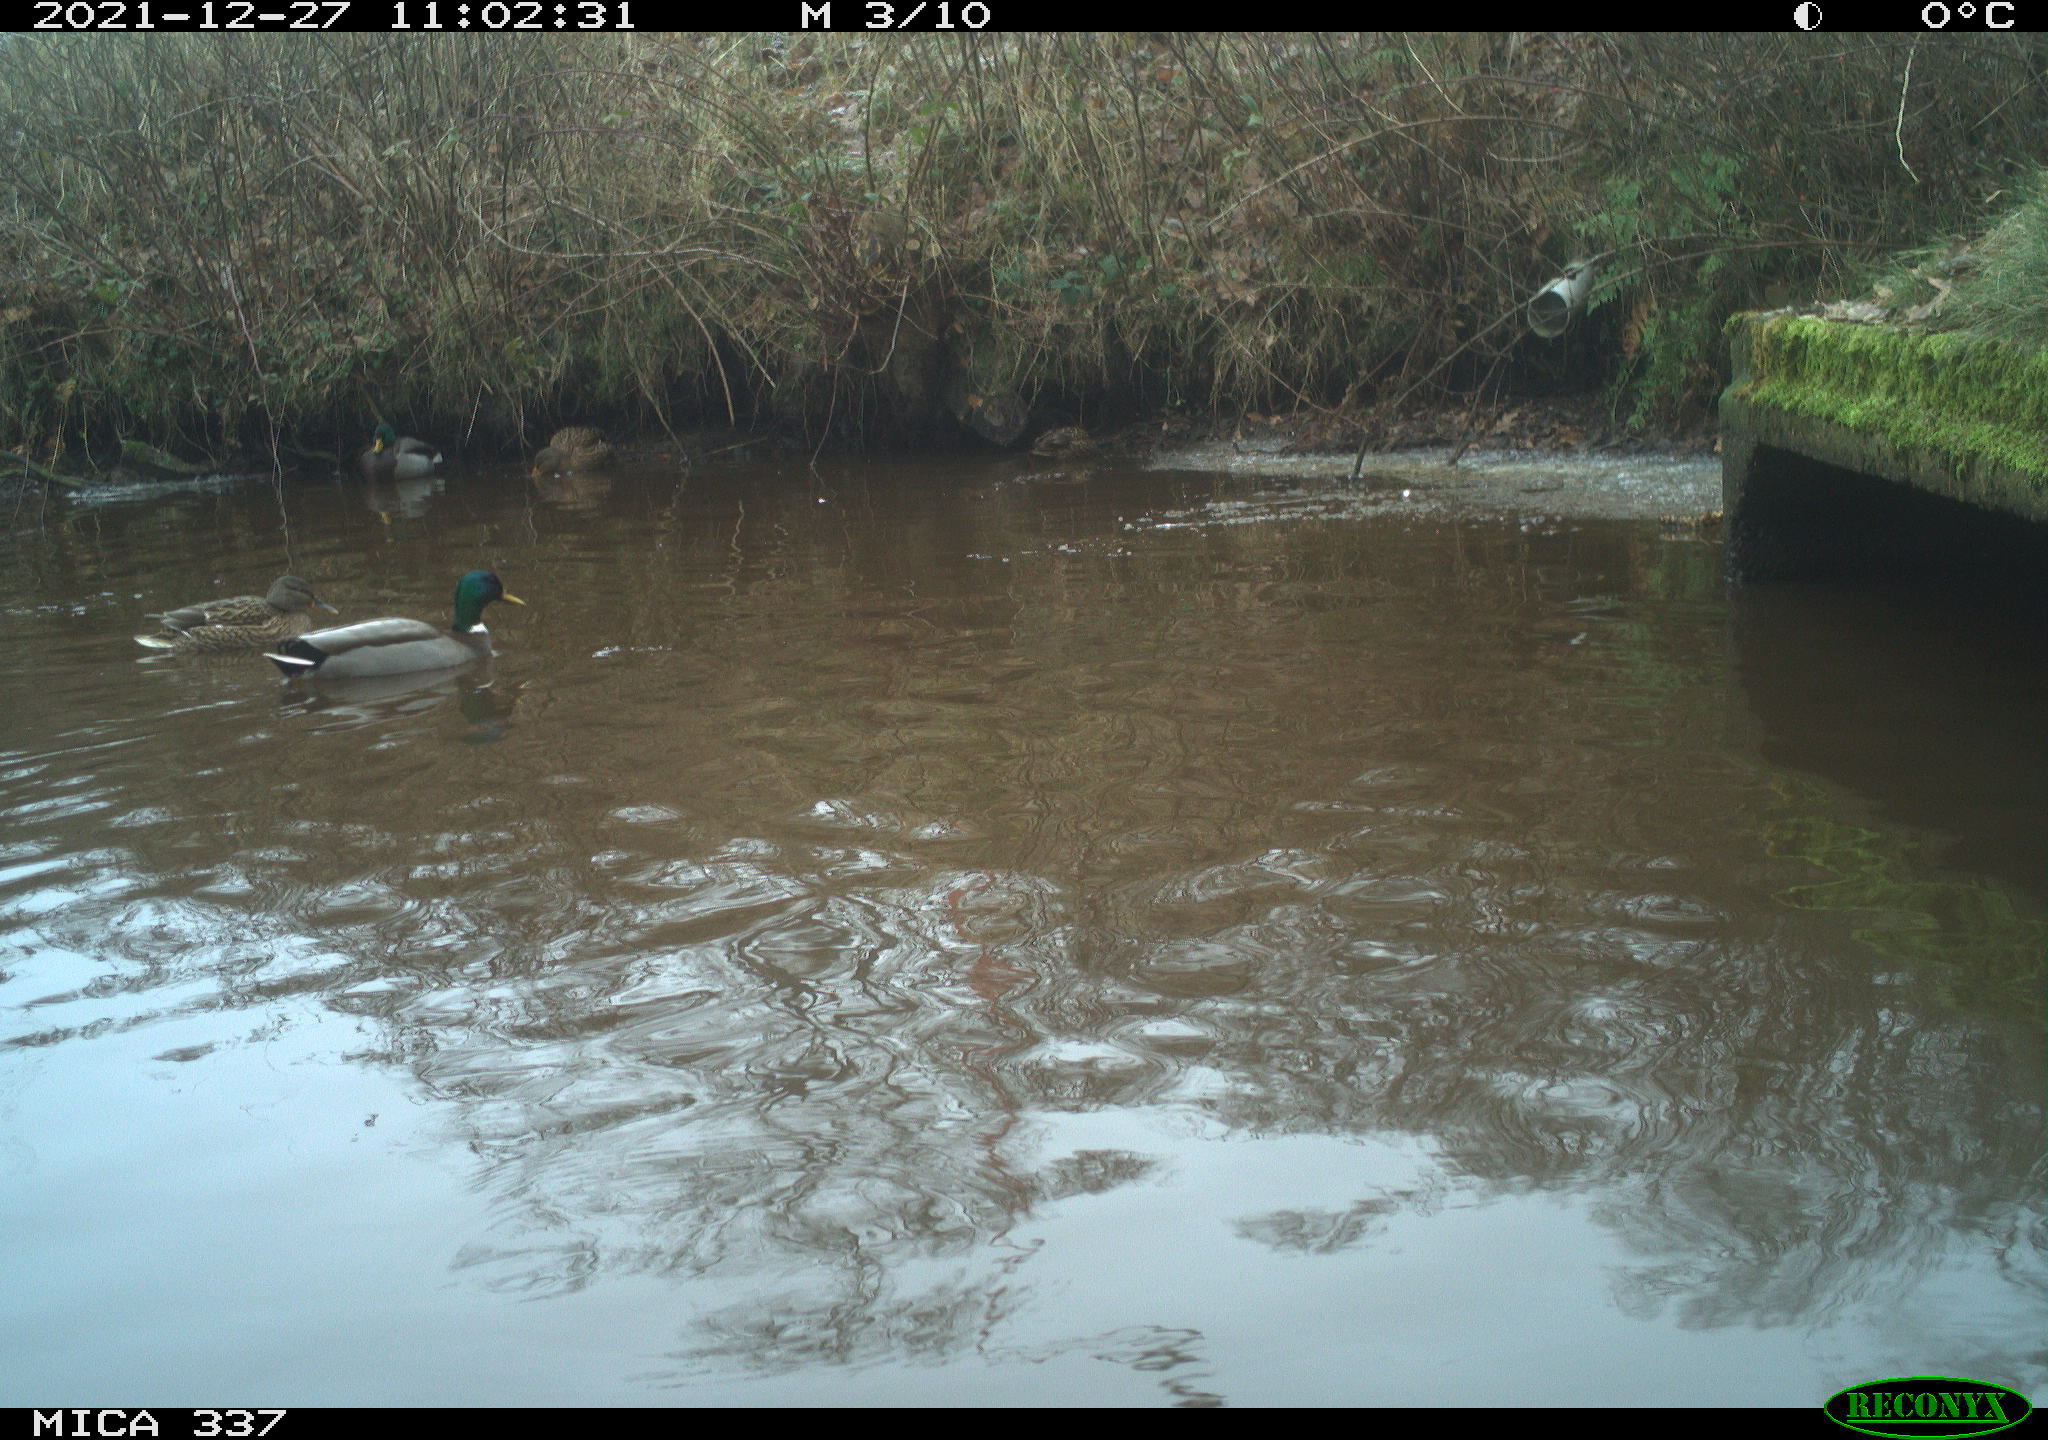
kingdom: Animalia
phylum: Chordata
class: Aves
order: Anseriformes
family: Anatidae
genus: Anas
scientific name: Anas platyrhynchos
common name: Mallard
